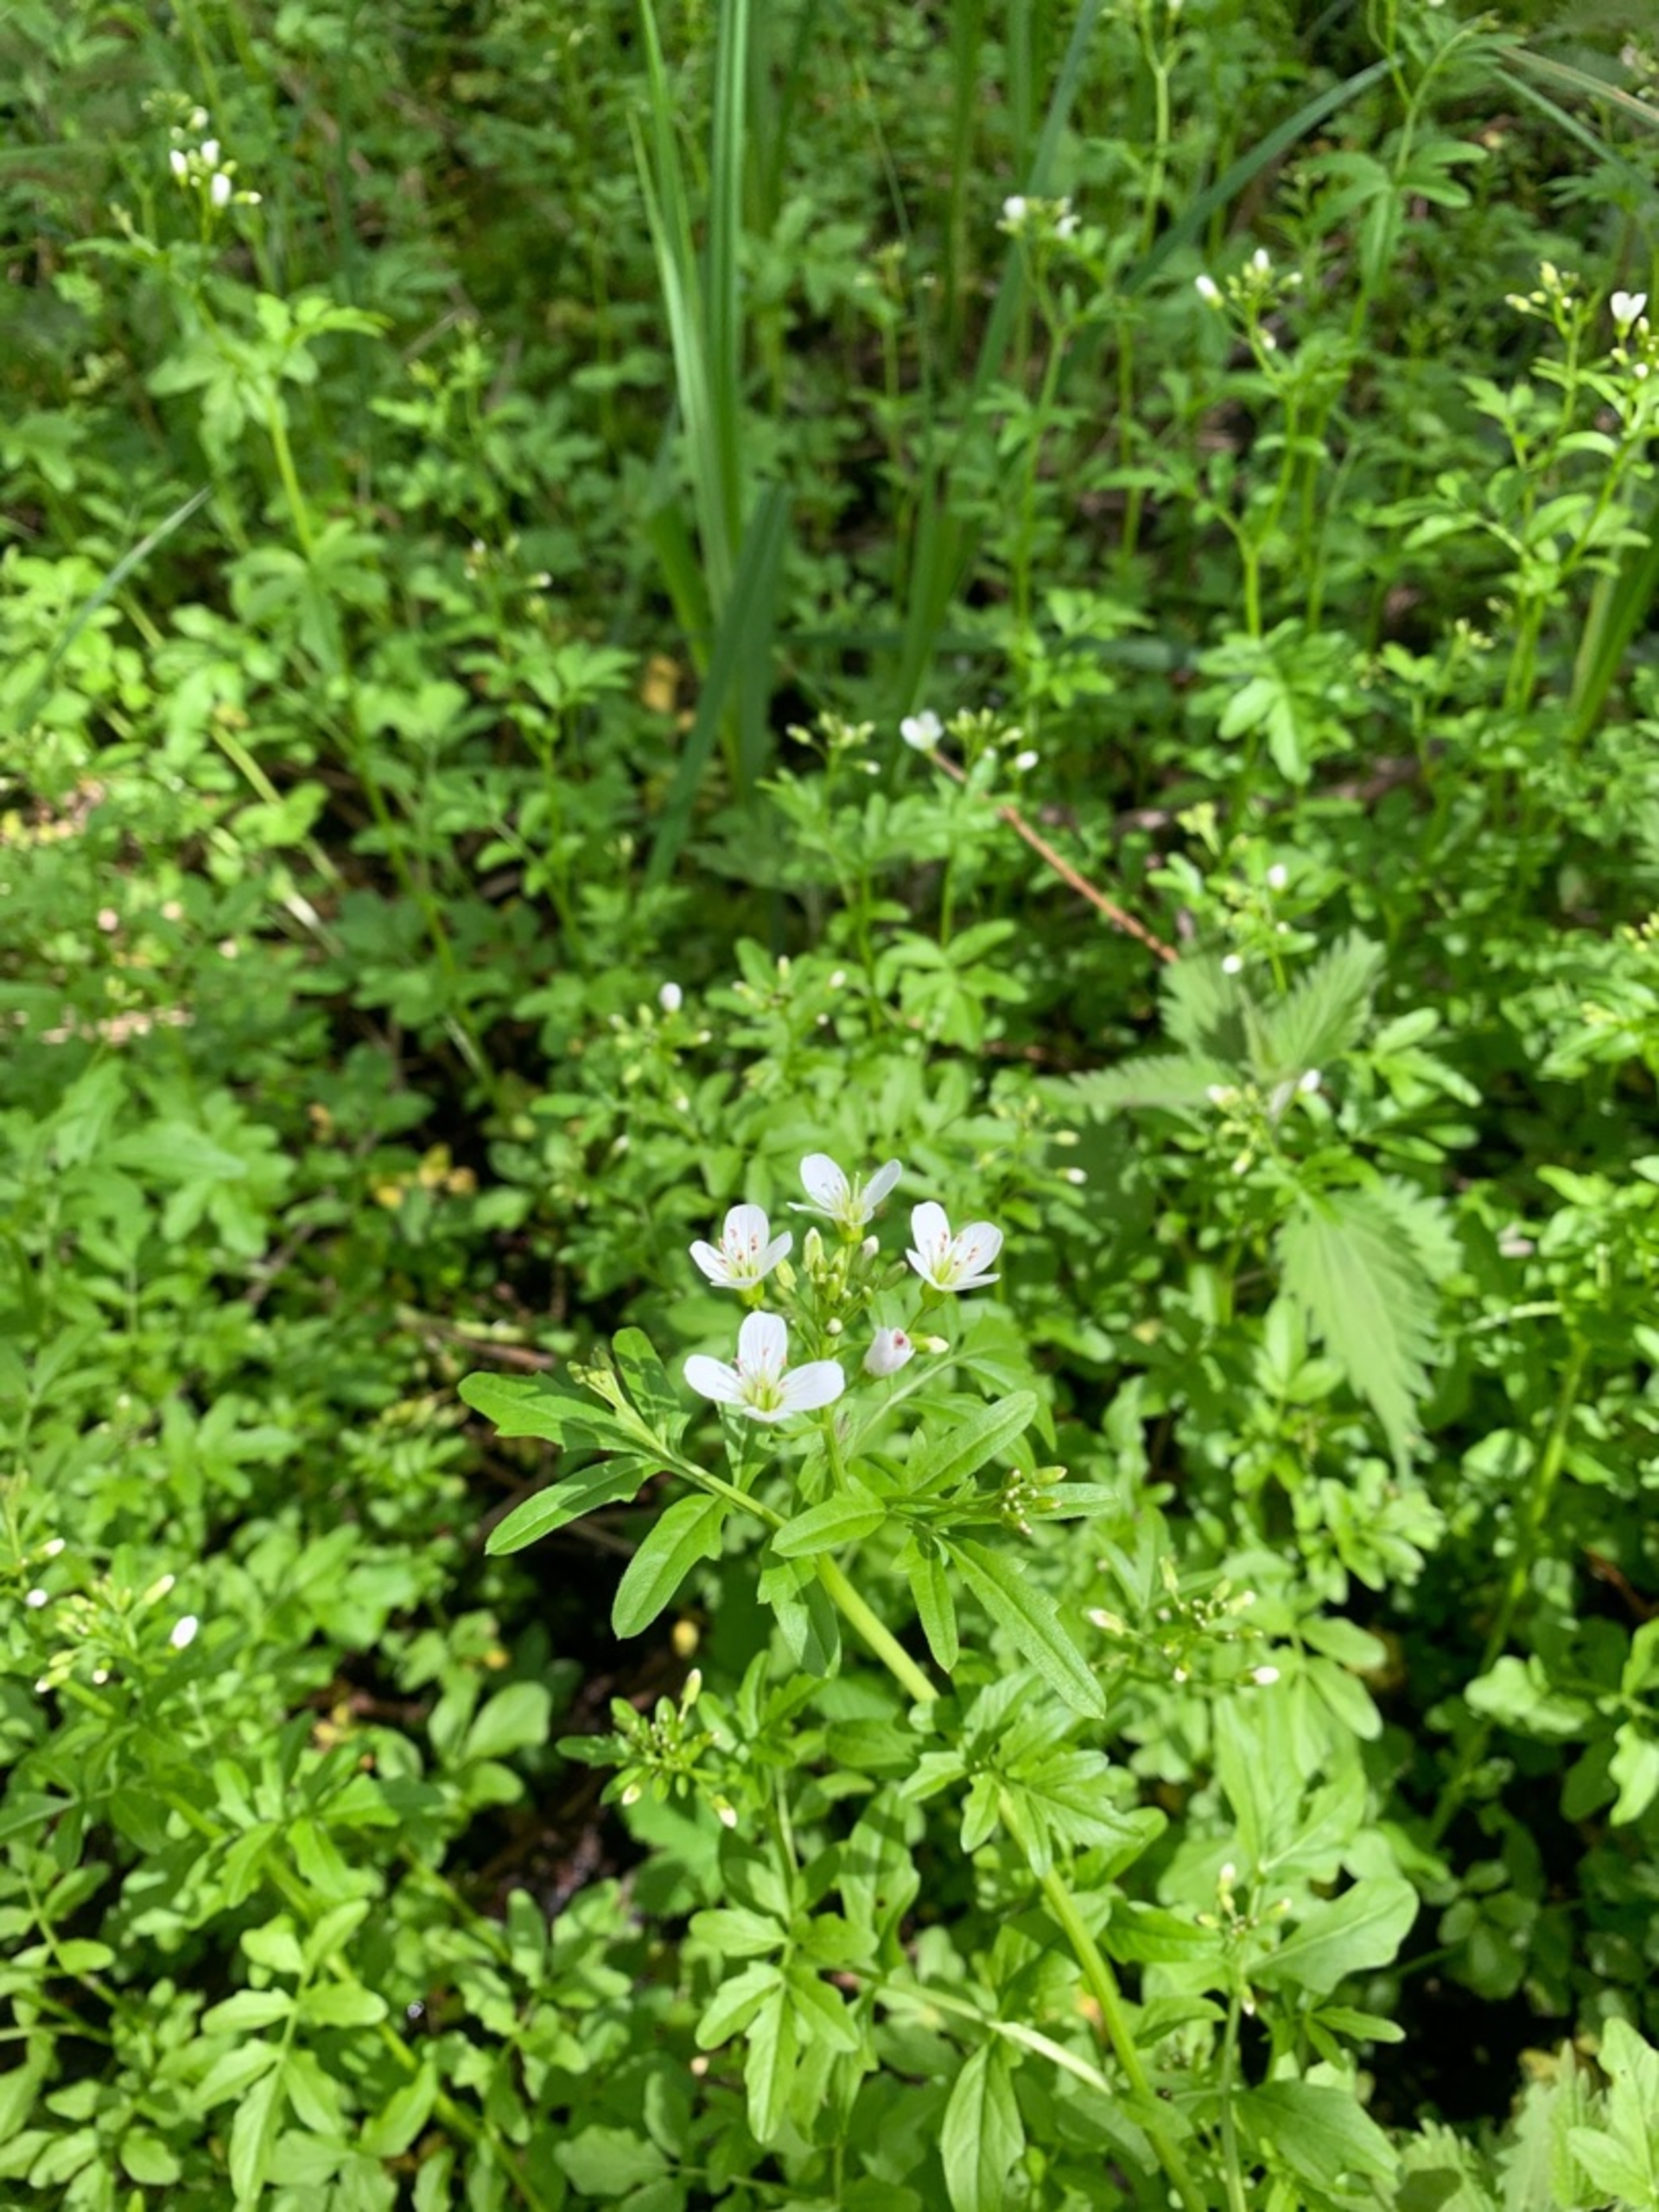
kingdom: Plantae
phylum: Tracheophyta
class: Magnoliopsida
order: Brassicales
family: Brassicaceae
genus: Cardamine
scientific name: Cardamine amara
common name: Vandkarse
